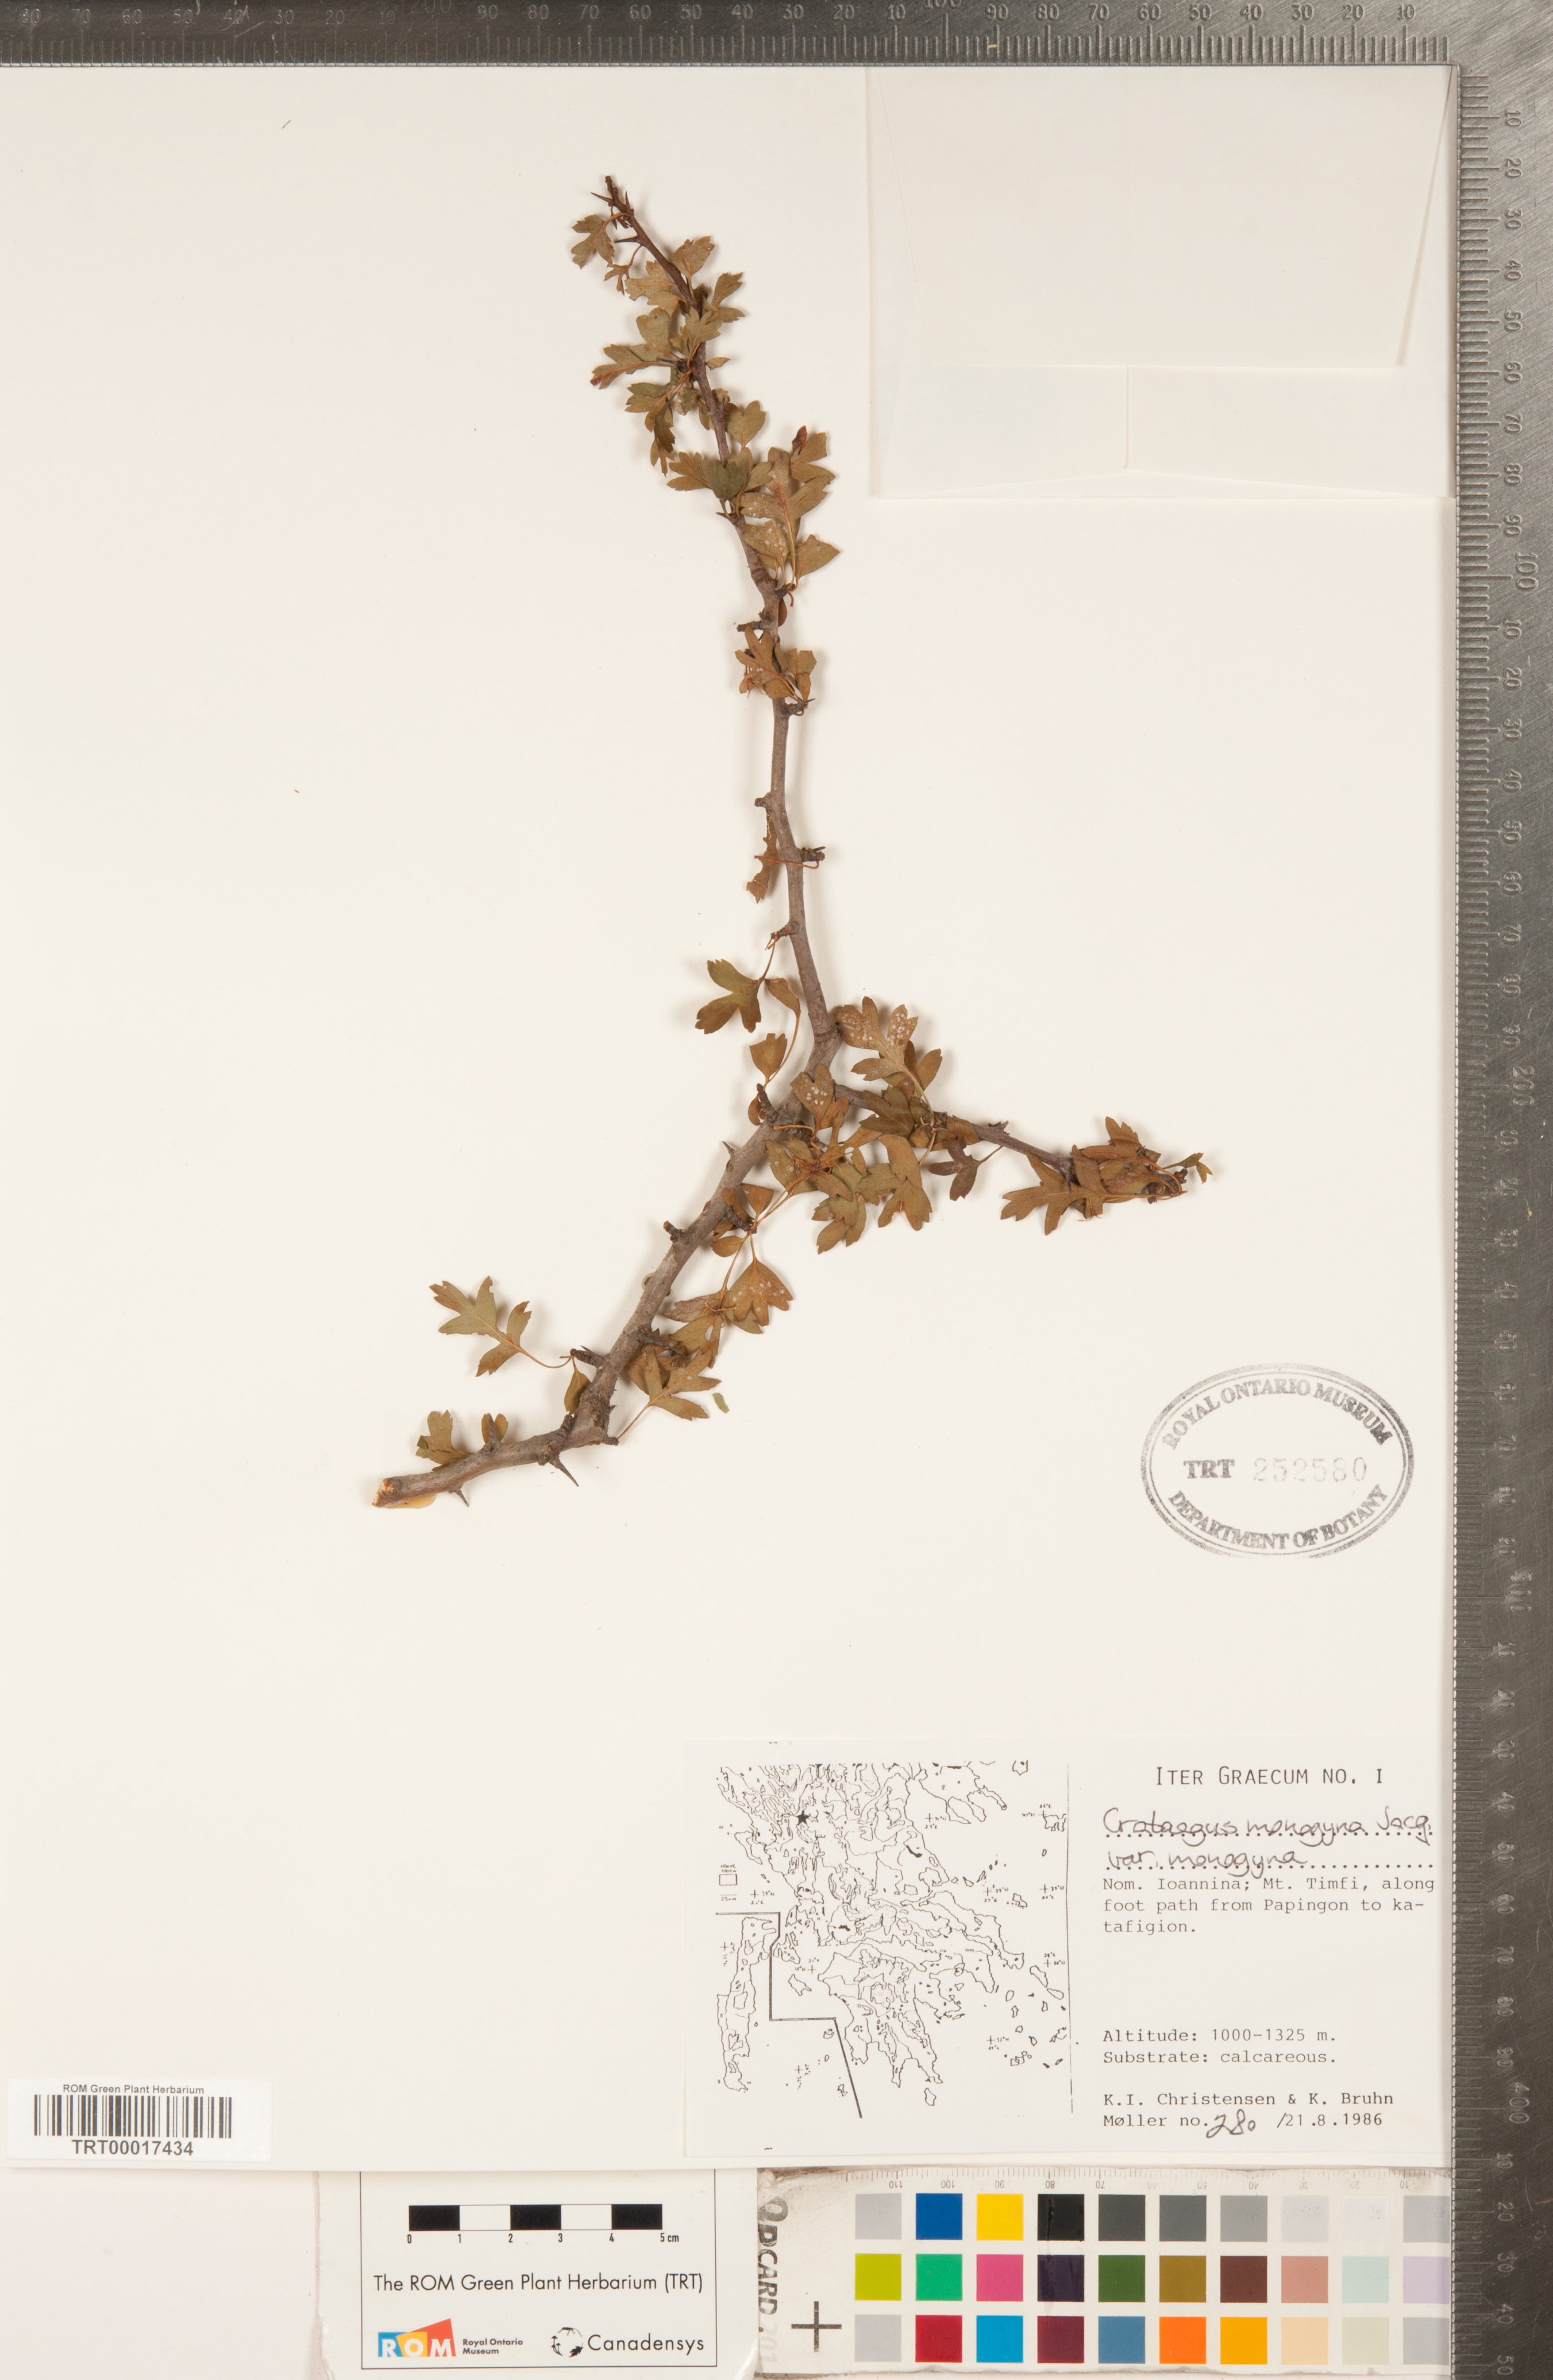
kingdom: Plantae
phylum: Tracheophyta
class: Magnoliopsida
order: Rosales
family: Rosaceae
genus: Crataegus
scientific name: Crataegus monogyna
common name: Hawthorn
